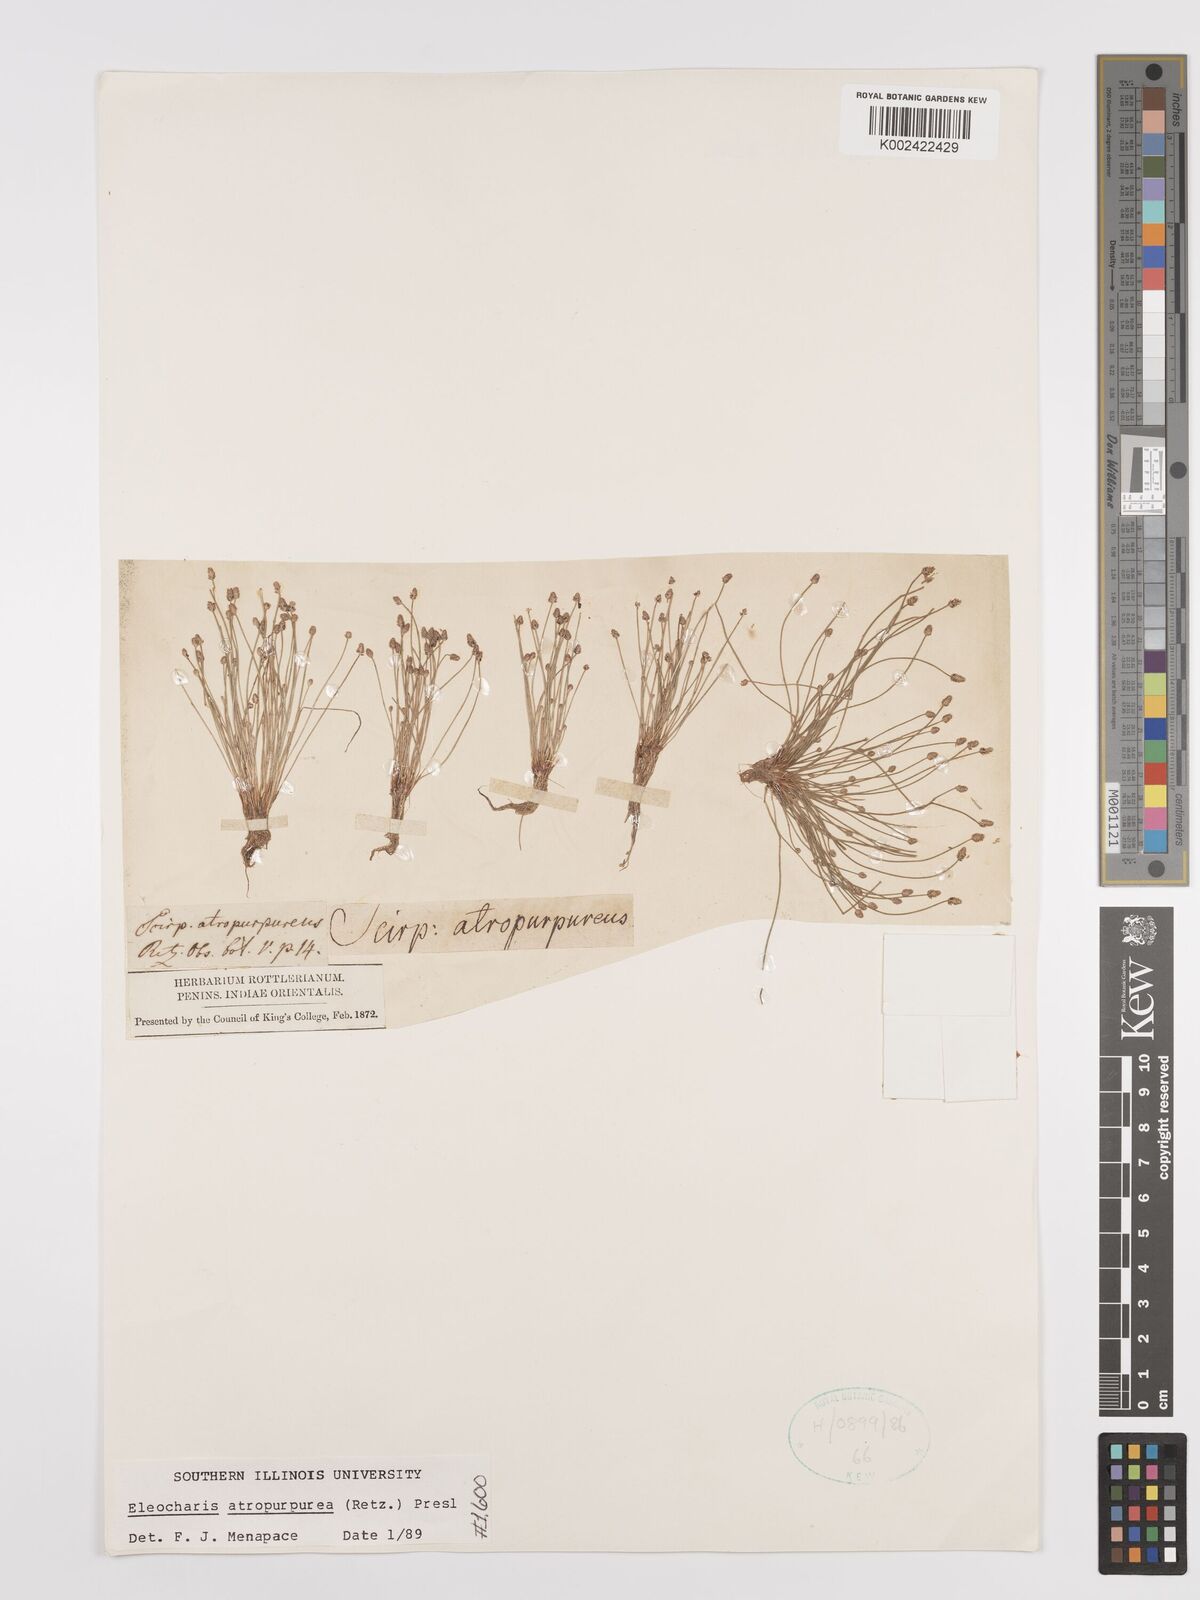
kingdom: Plantae
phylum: Tracheophyta
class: Liliopsida
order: Poales
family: Cyperaceae
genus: Eleocharis
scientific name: Eleocharis atropurpurea
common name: Purple spikerush
